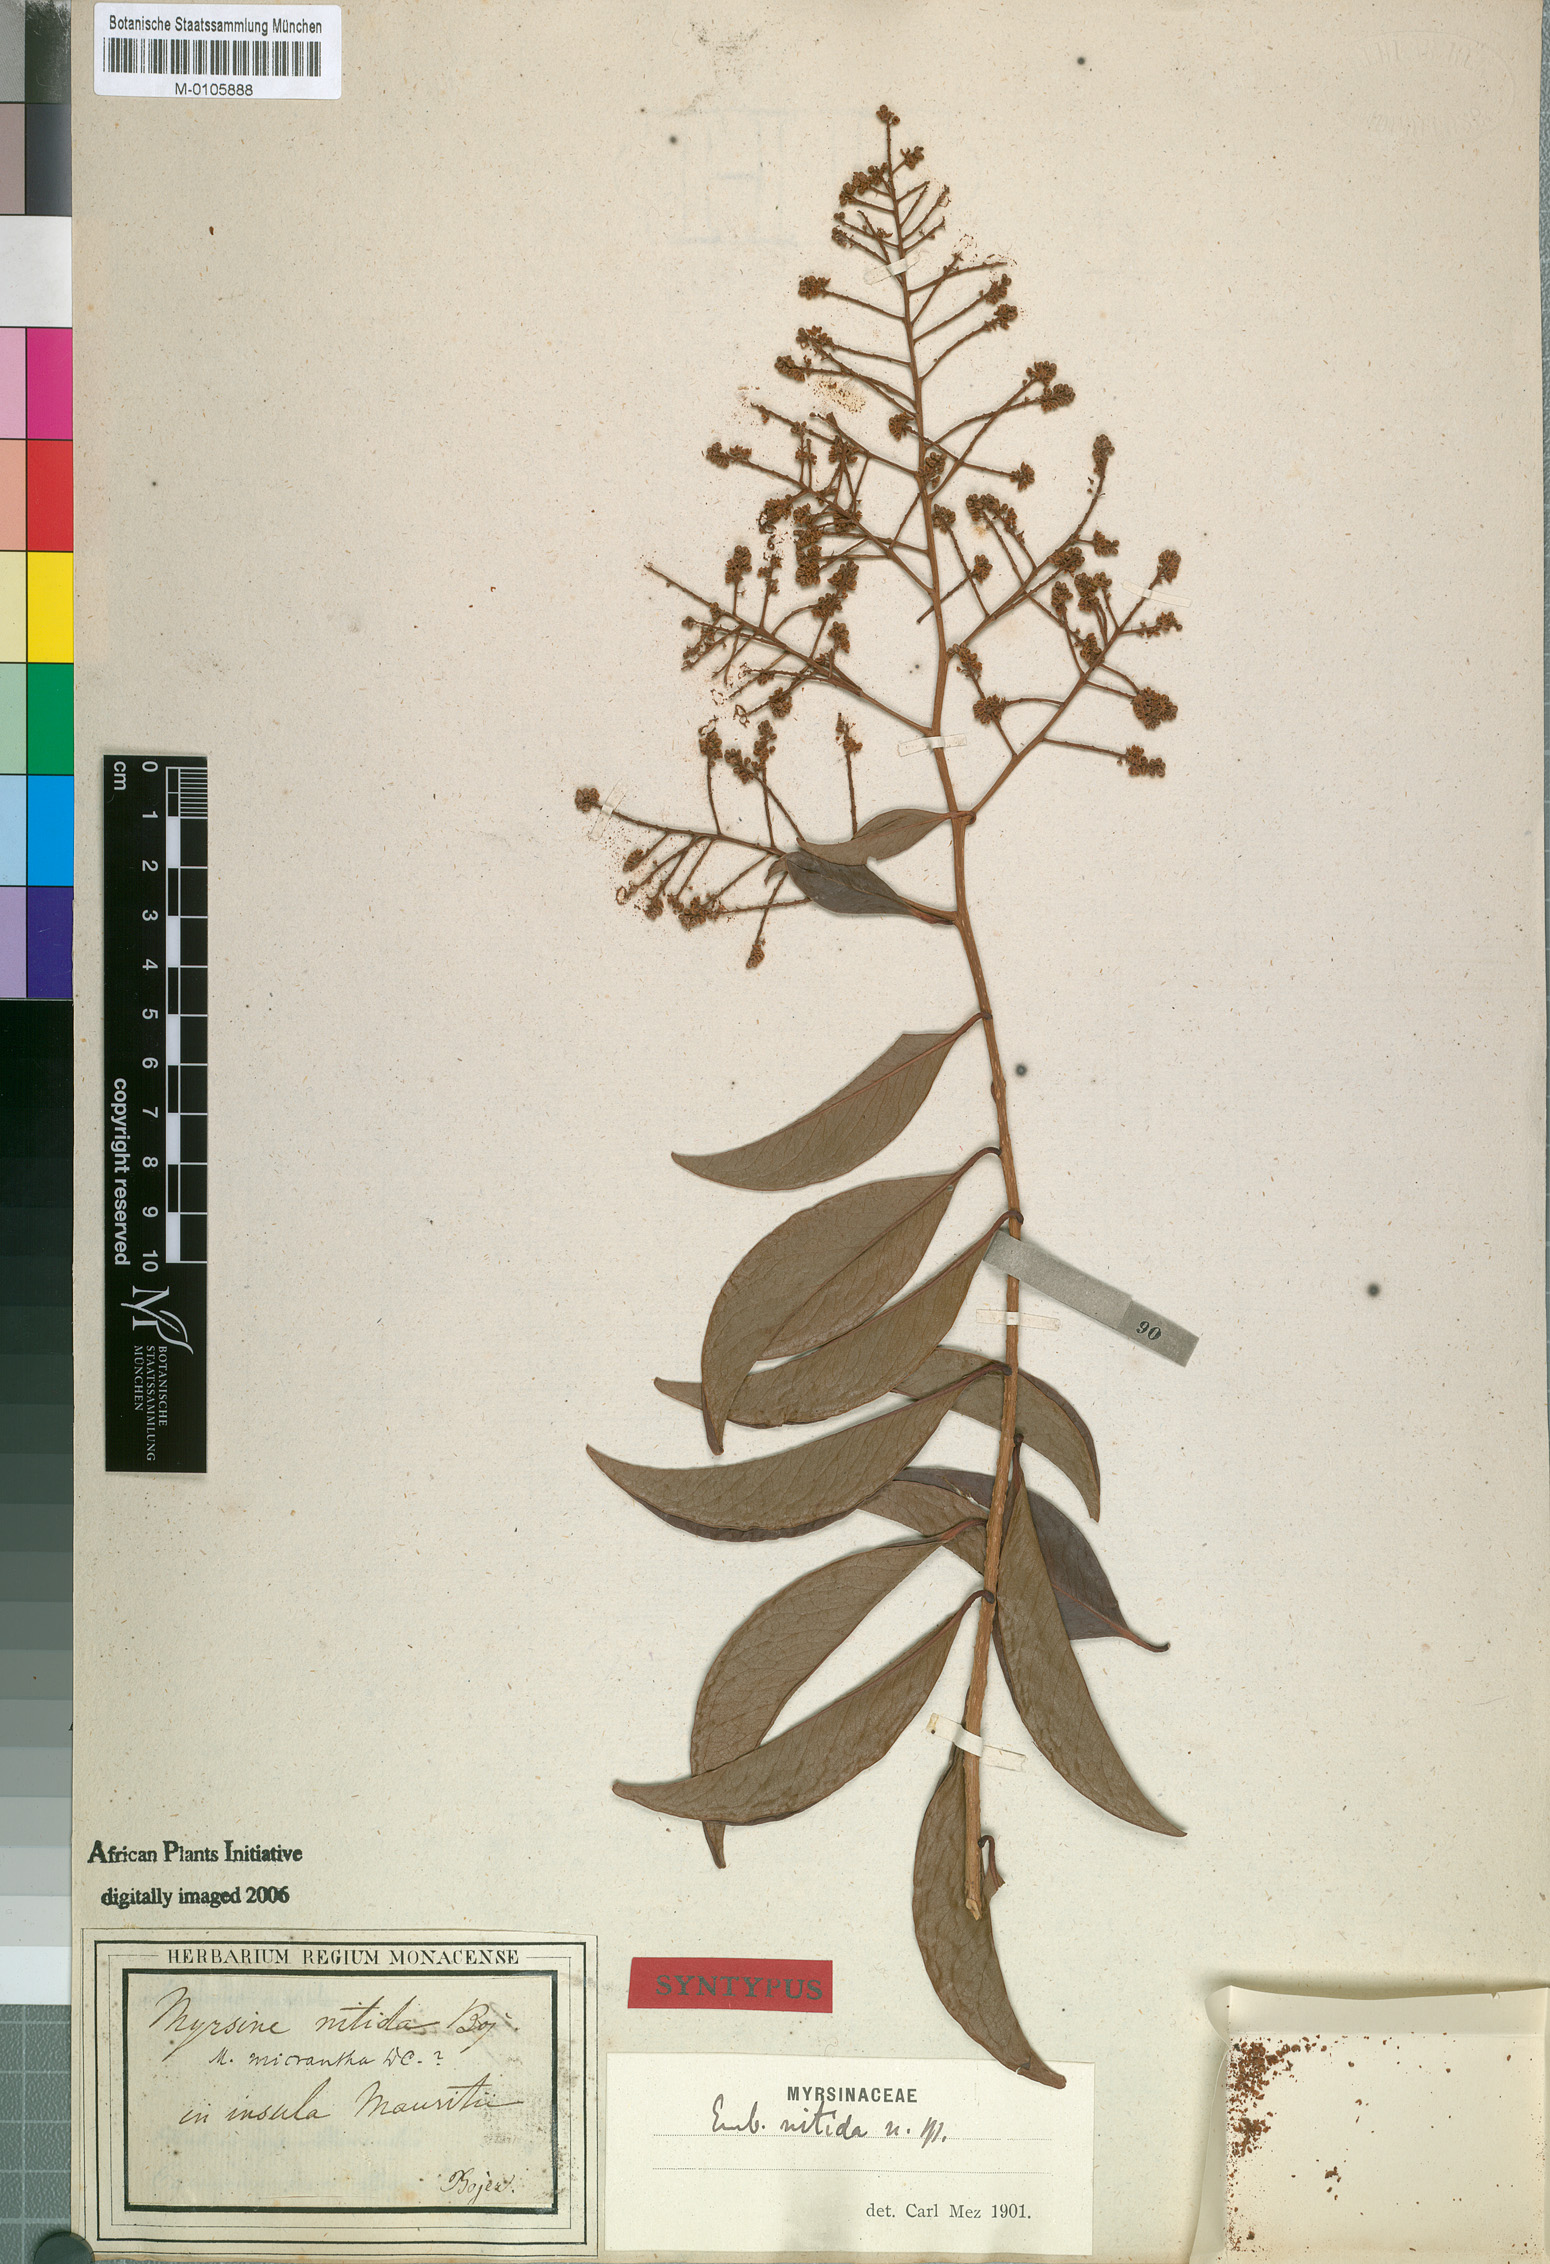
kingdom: Plantae
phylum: Tracheophyta
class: Magnoliopsida
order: Ericales
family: Primulaceae
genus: Embelia
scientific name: Embelia boivinii
